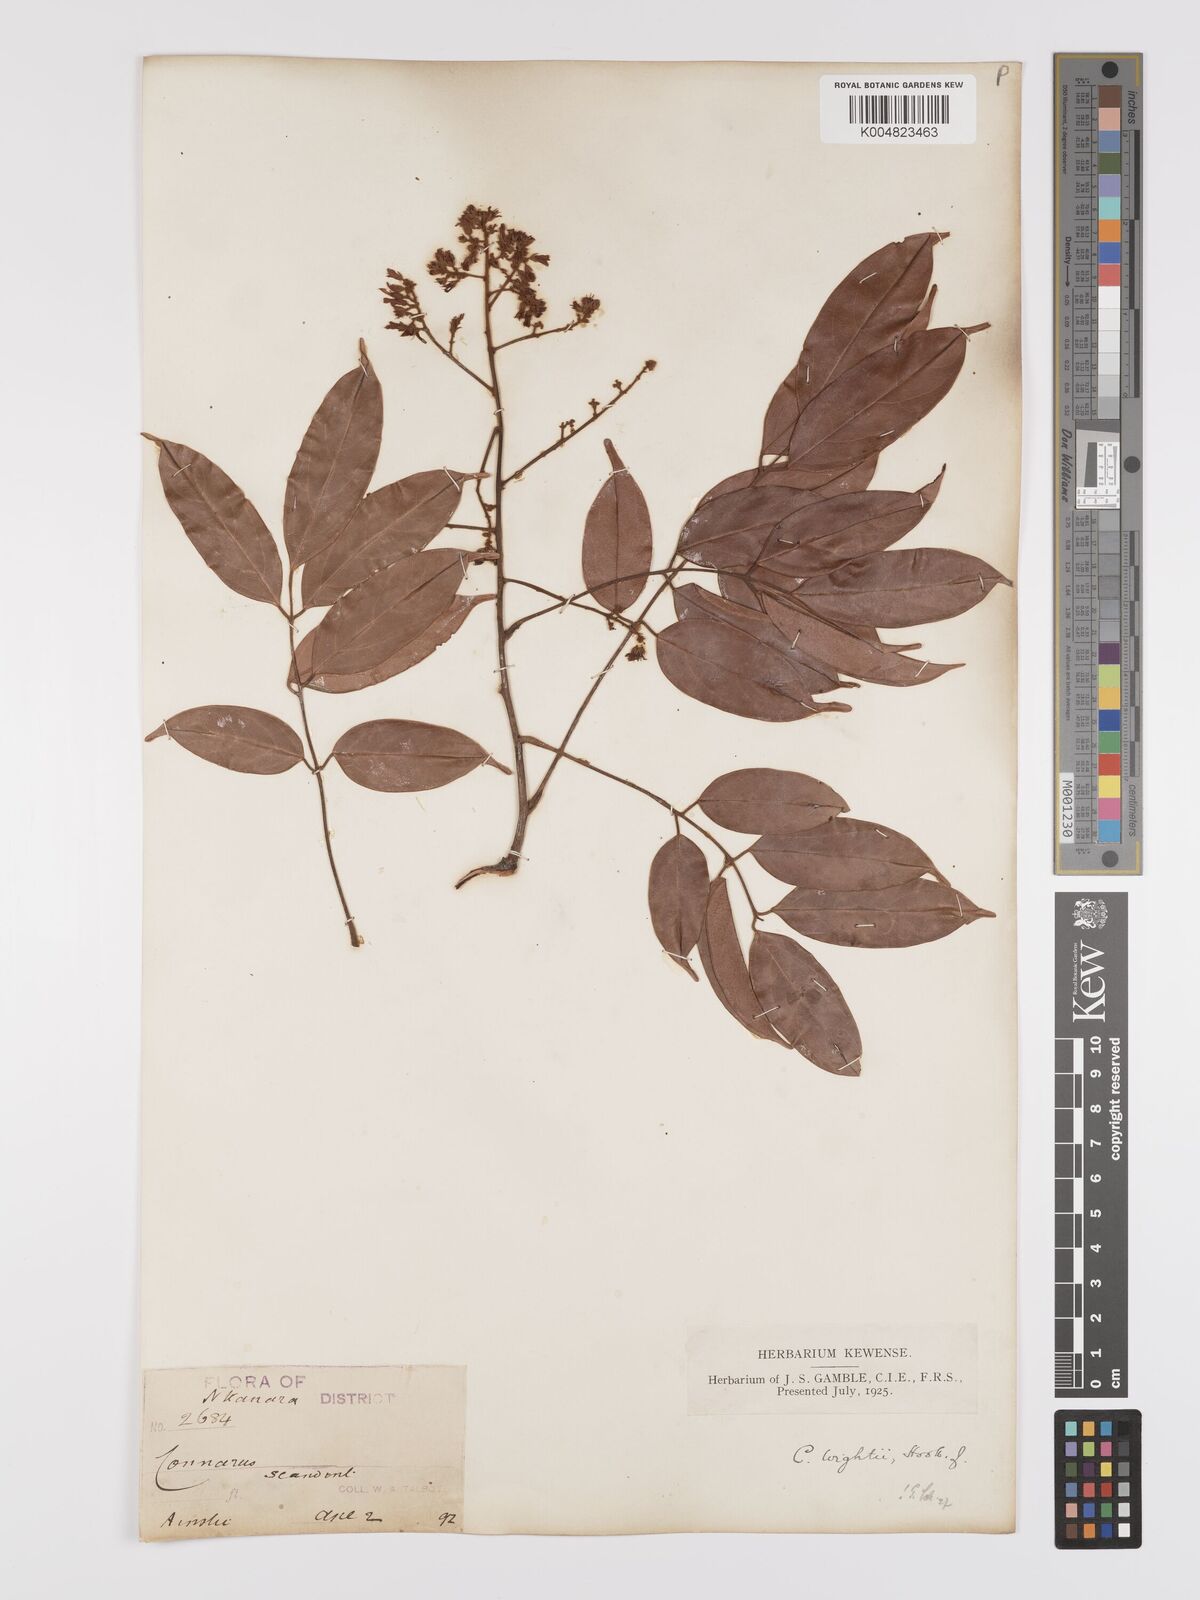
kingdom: Plantae
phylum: Tracheophyta
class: Magnoliopsida
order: Oxalidales
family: Connaraceae
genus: Connarus
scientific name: Connarus wightii
